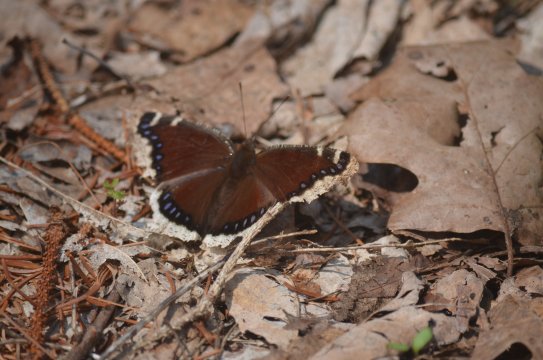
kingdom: Animalia
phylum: Arthropoda
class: Insecta
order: Lepidoptera
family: Nymphalidae
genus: Nymphalis
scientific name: Nymphalis antiopa
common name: Mourning Cloak
